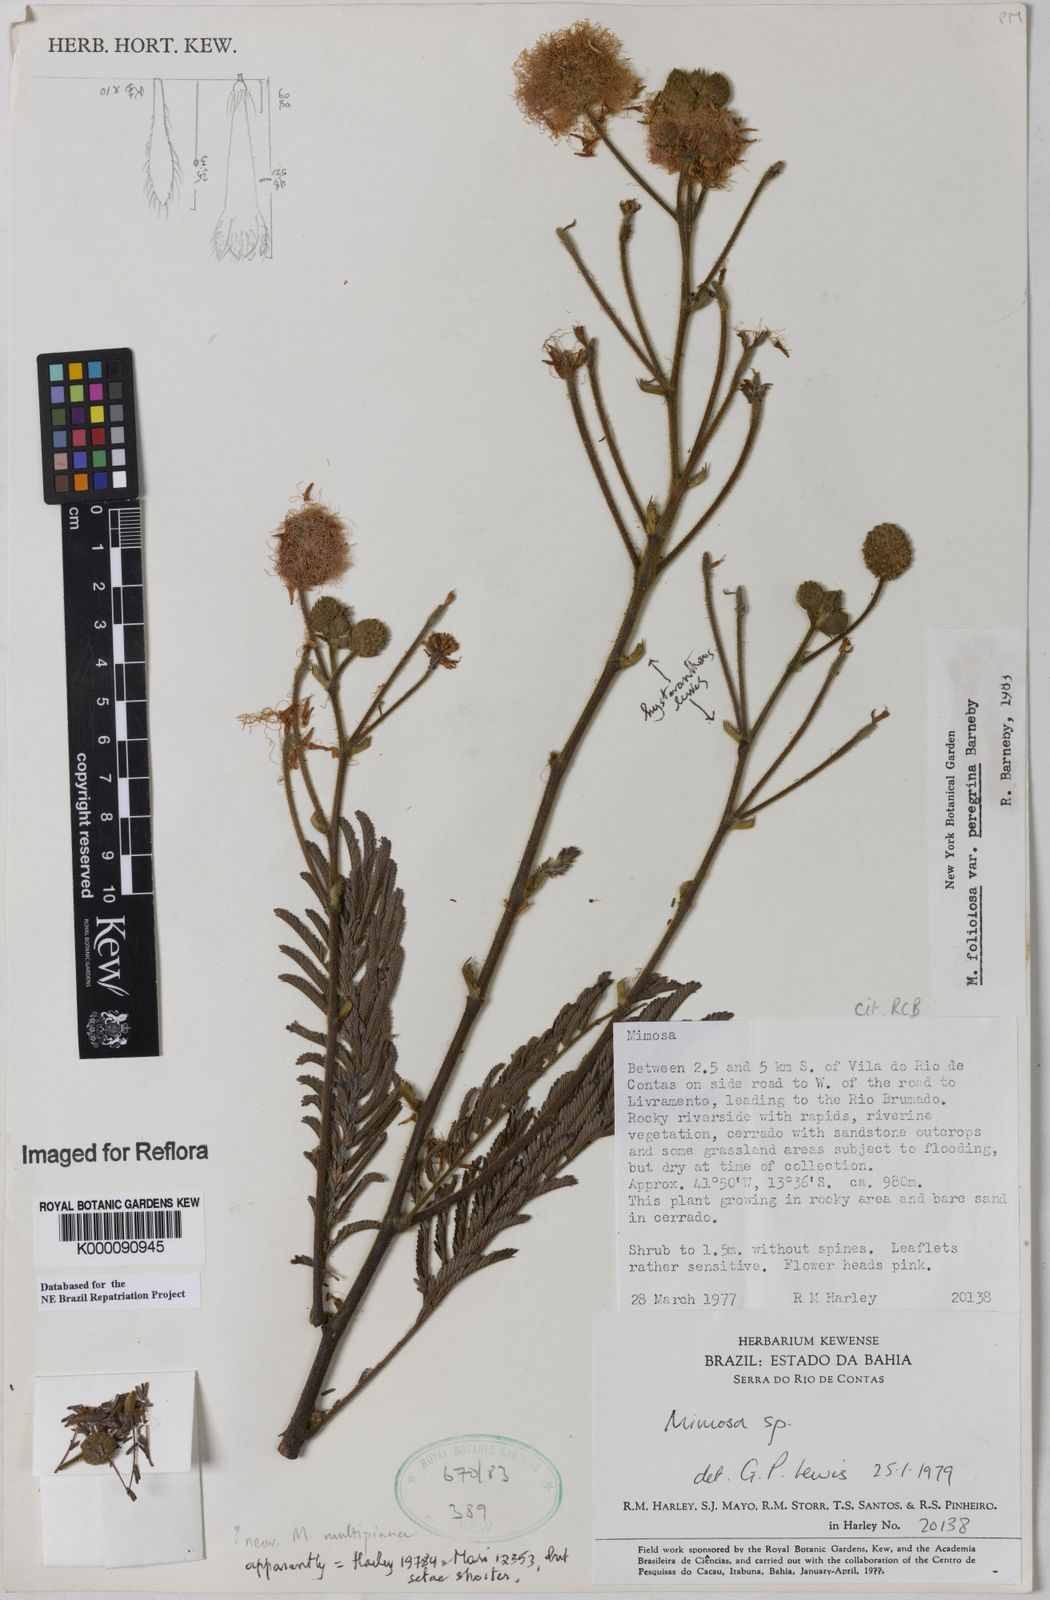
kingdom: Plantae
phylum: Tracheophyta
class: Magnoliopsida
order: Fabales
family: Fabaceae
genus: Mimosa
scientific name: Mimosa foliolosa
